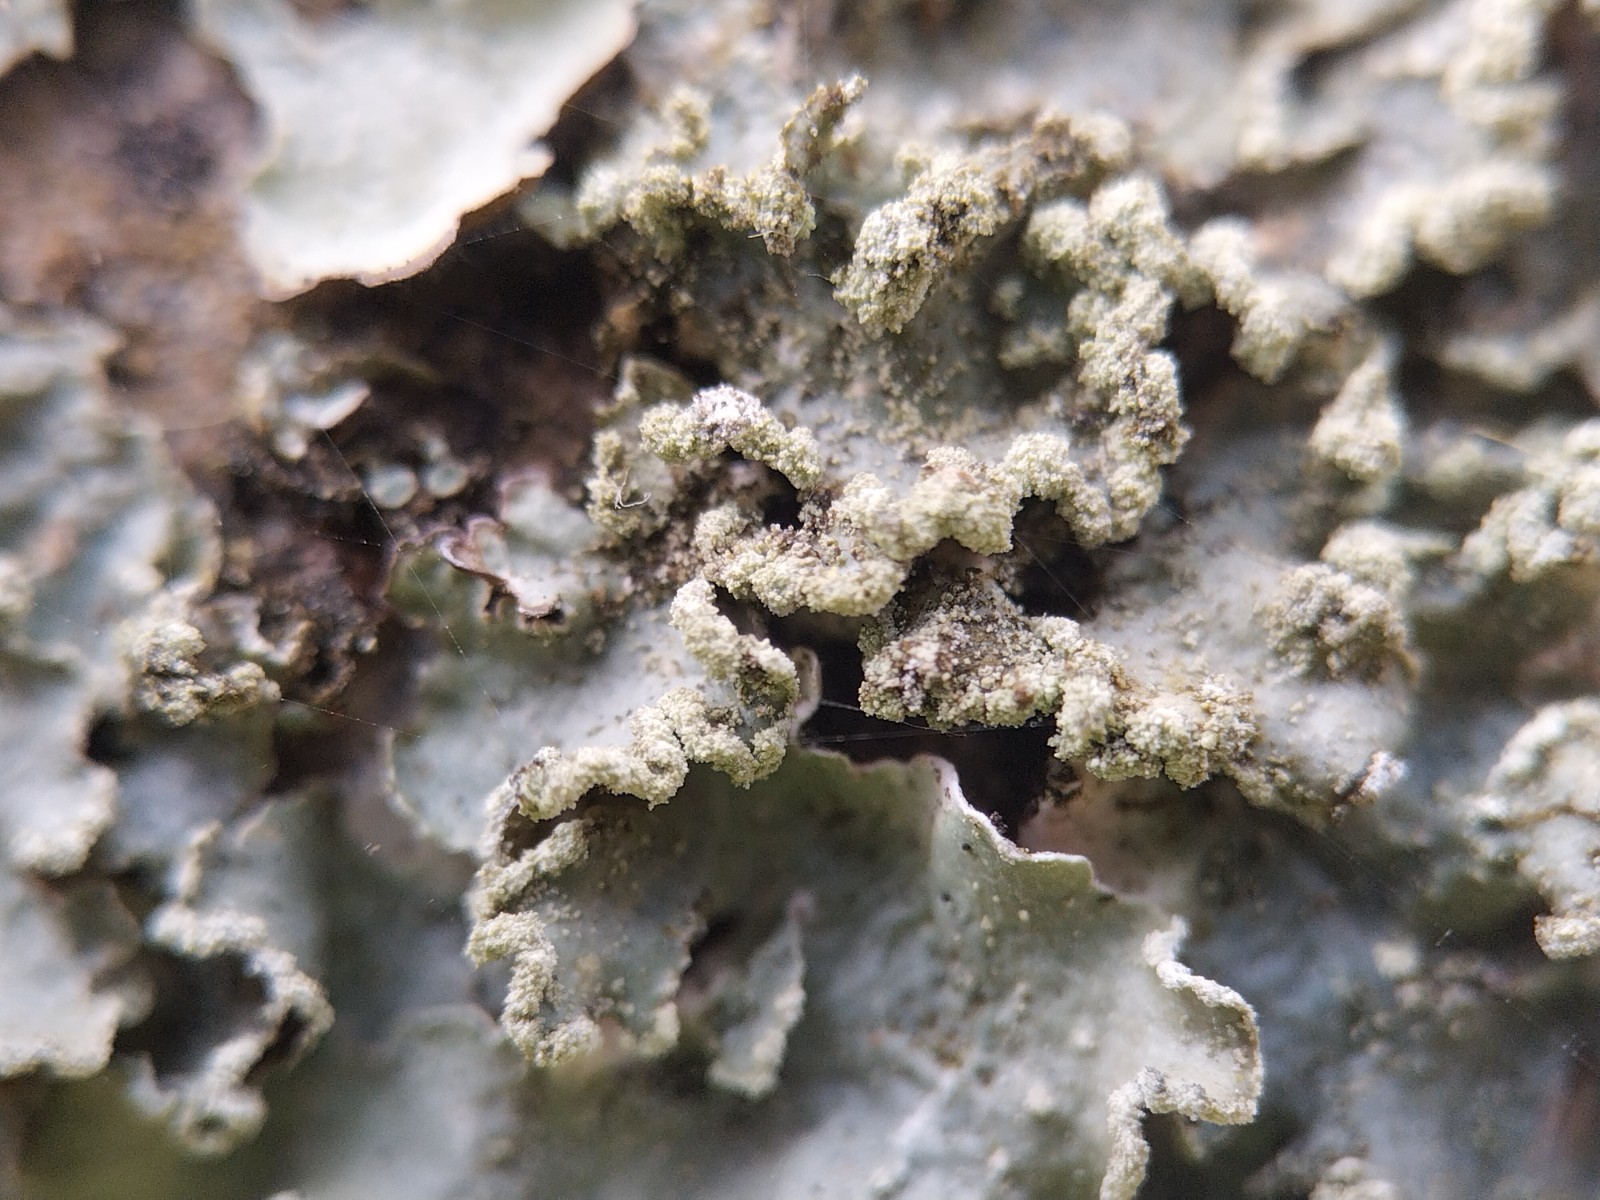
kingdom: Fungi
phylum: Ascomycota
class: Lecanoromycetes
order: Lecanorales
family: Parmeliaceae
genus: Punctelia
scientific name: Punctelia jeckeri
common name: randstøvet skållav
